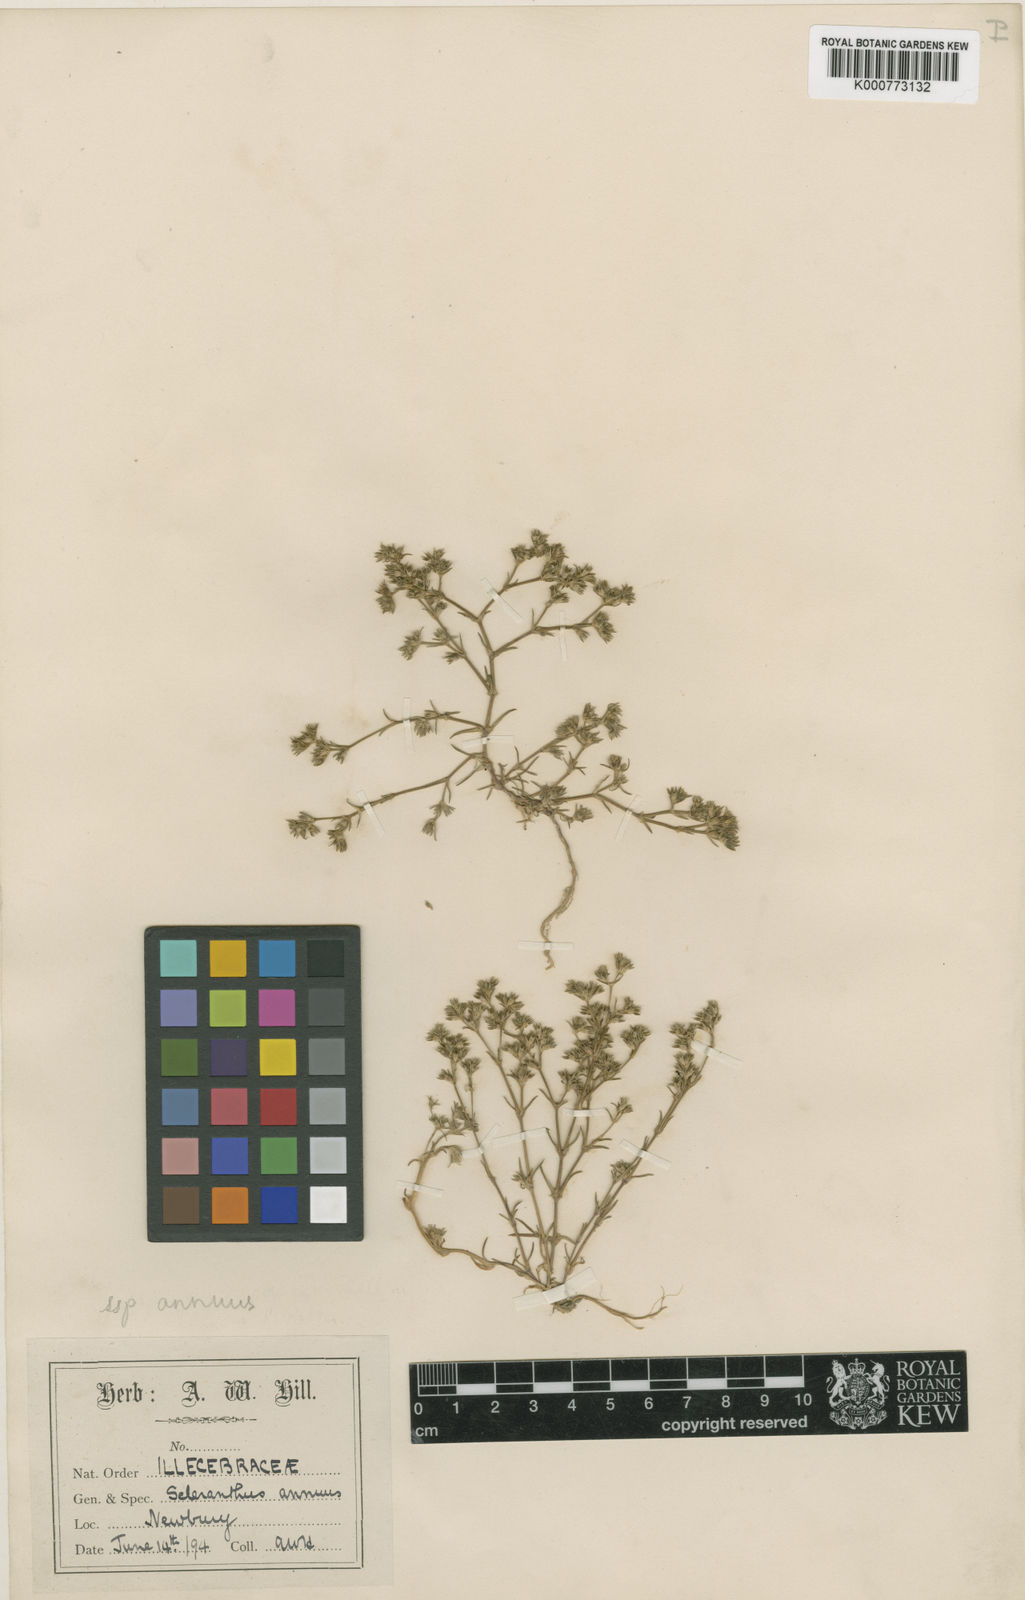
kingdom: Plantae
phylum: Tracheophyta
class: Magnoliopsida
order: Caryophyllales
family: Caryophyllaceae
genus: Scleranthus
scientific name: Scleranthus annuus
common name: Annual knawel
